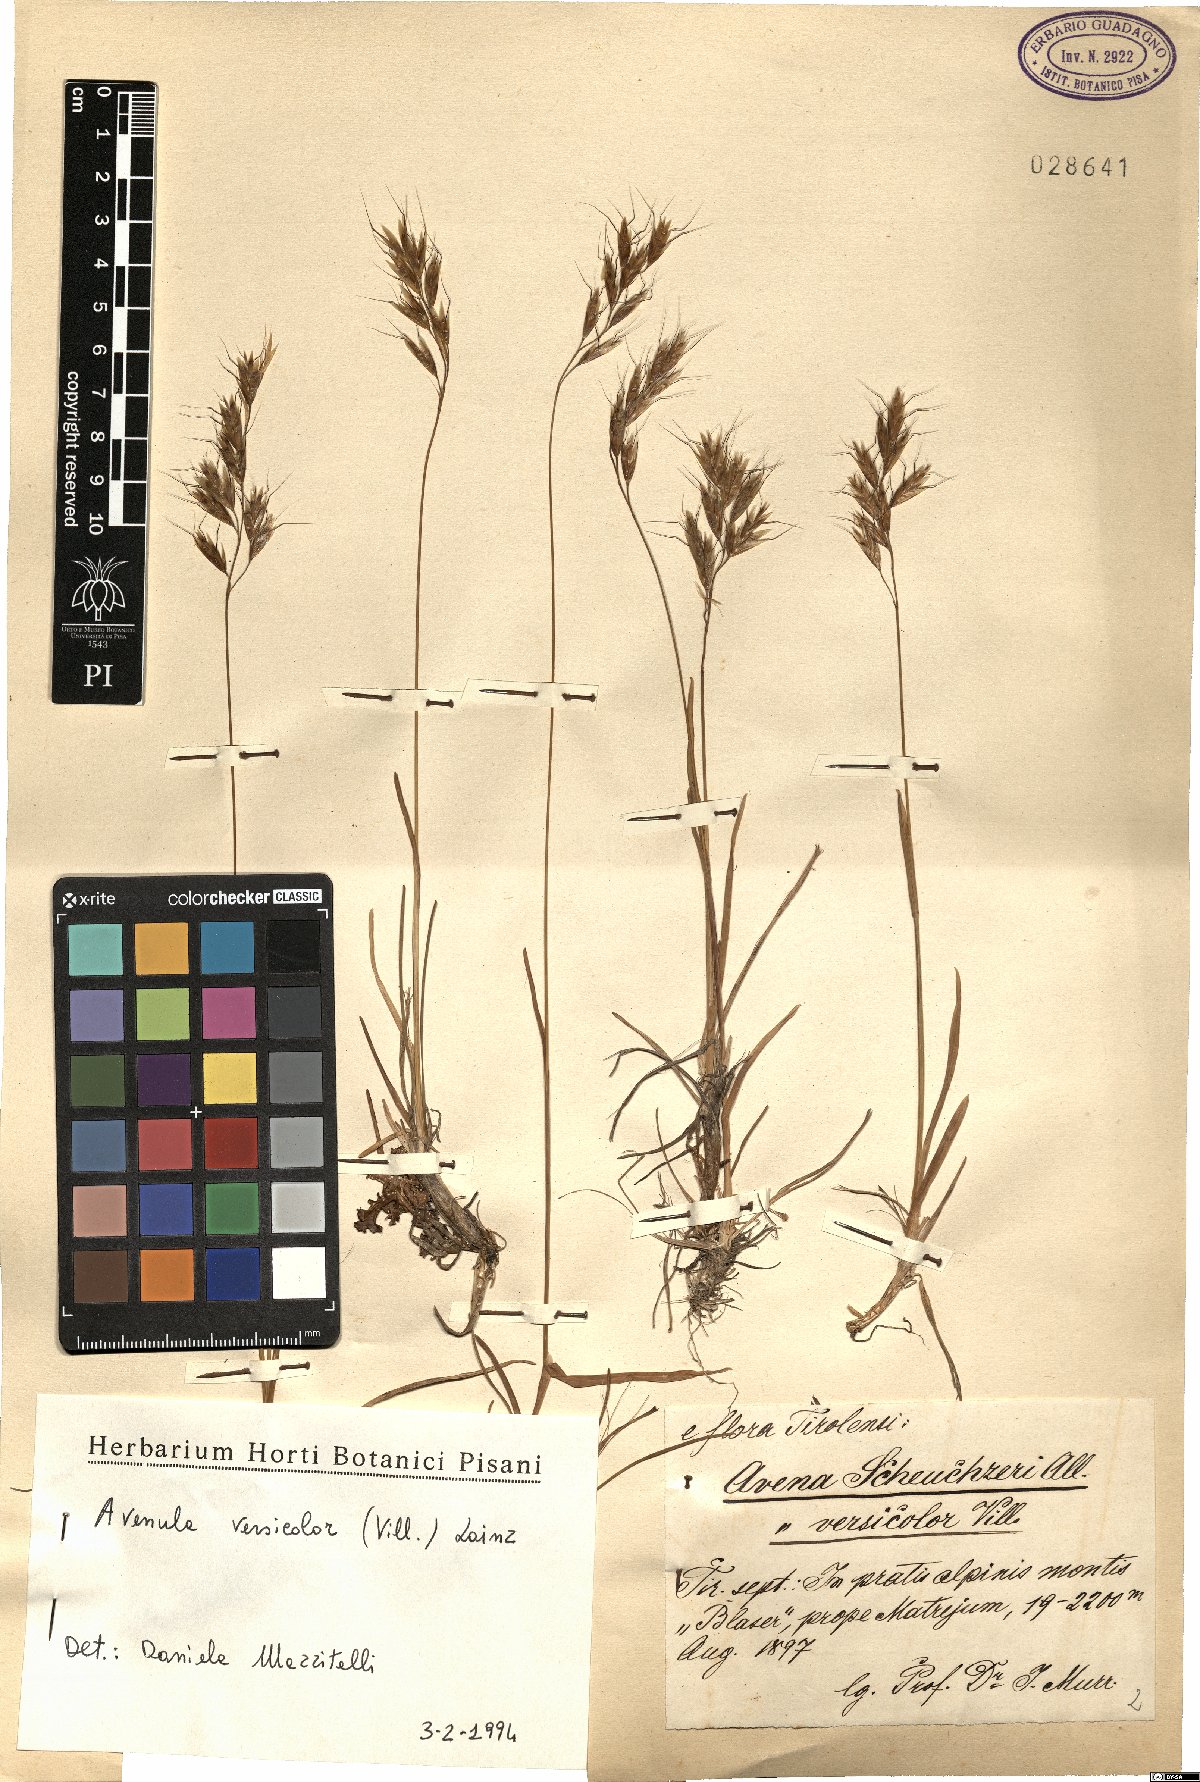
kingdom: Plantae
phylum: Tracheophyta
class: Liliopsida
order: Poales
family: Poaceae
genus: Helictochloa
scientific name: Helictochloa versicolor
